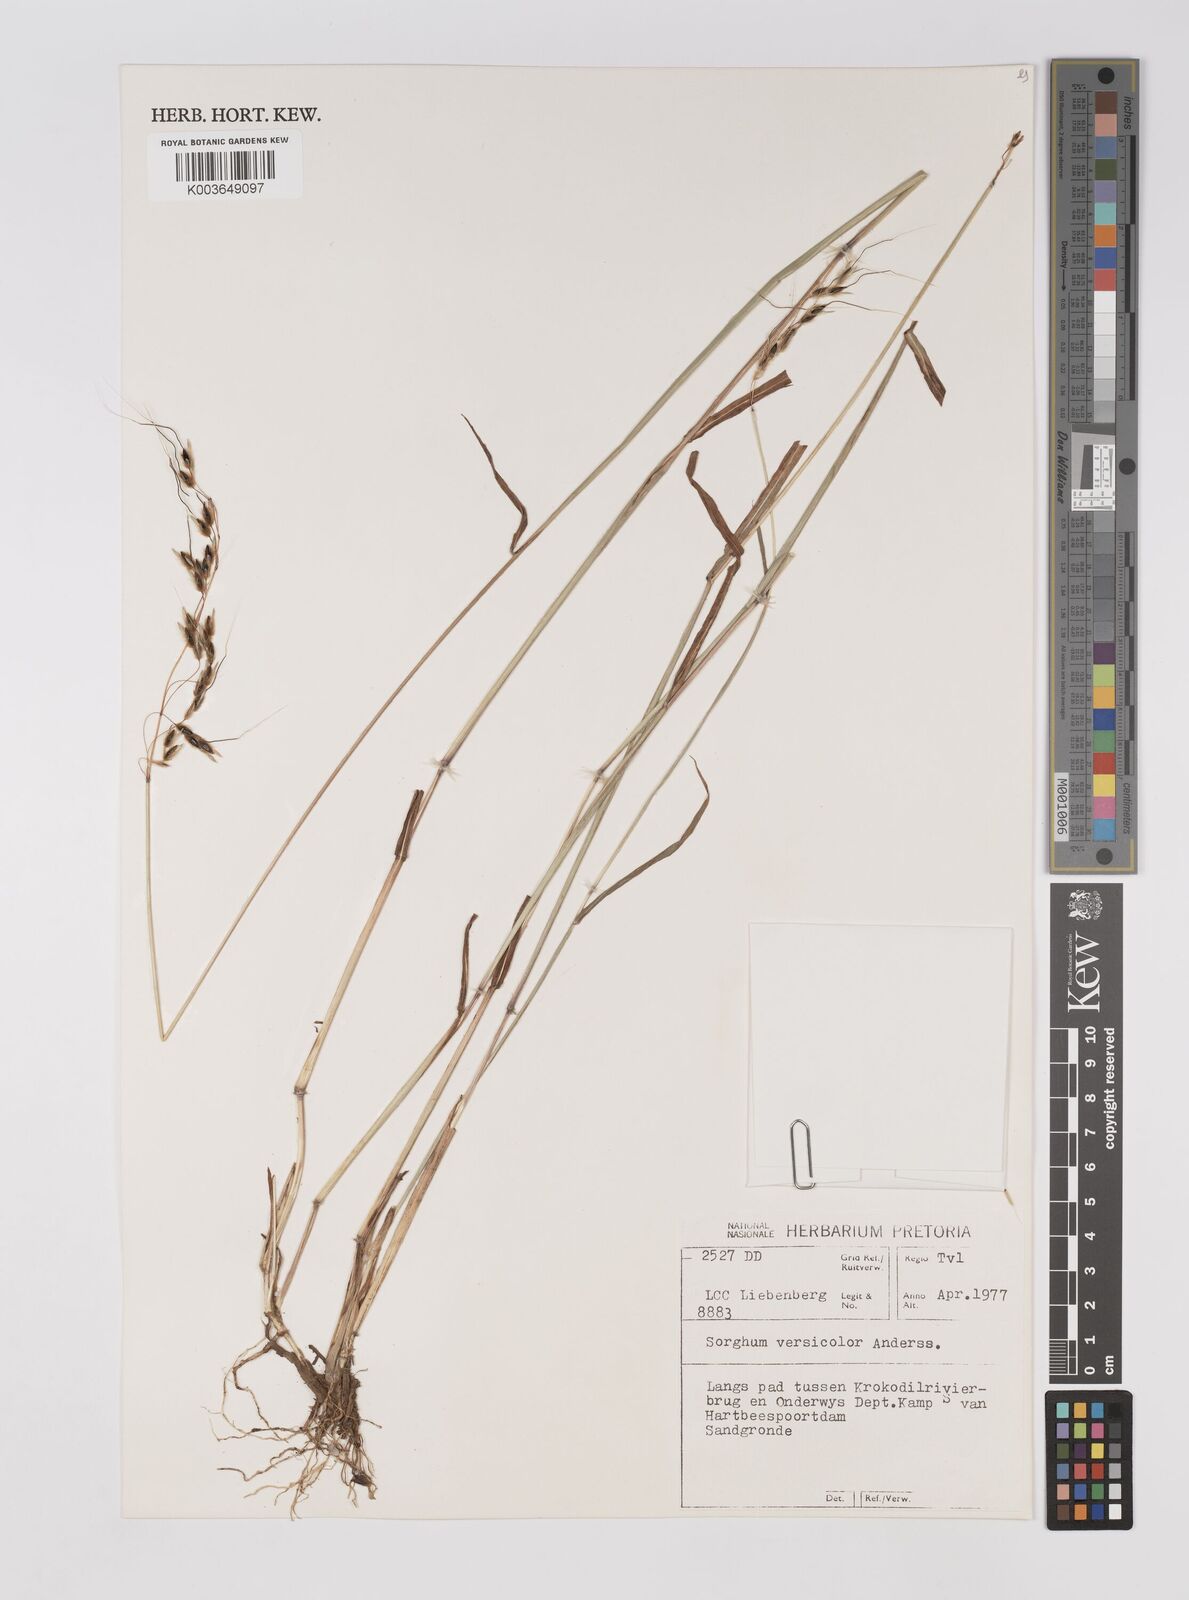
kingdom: Plantae
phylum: Tracheophyta
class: Liliopsida
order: Poales
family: Poaceae
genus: Sarga
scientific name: Sarga versicolor
